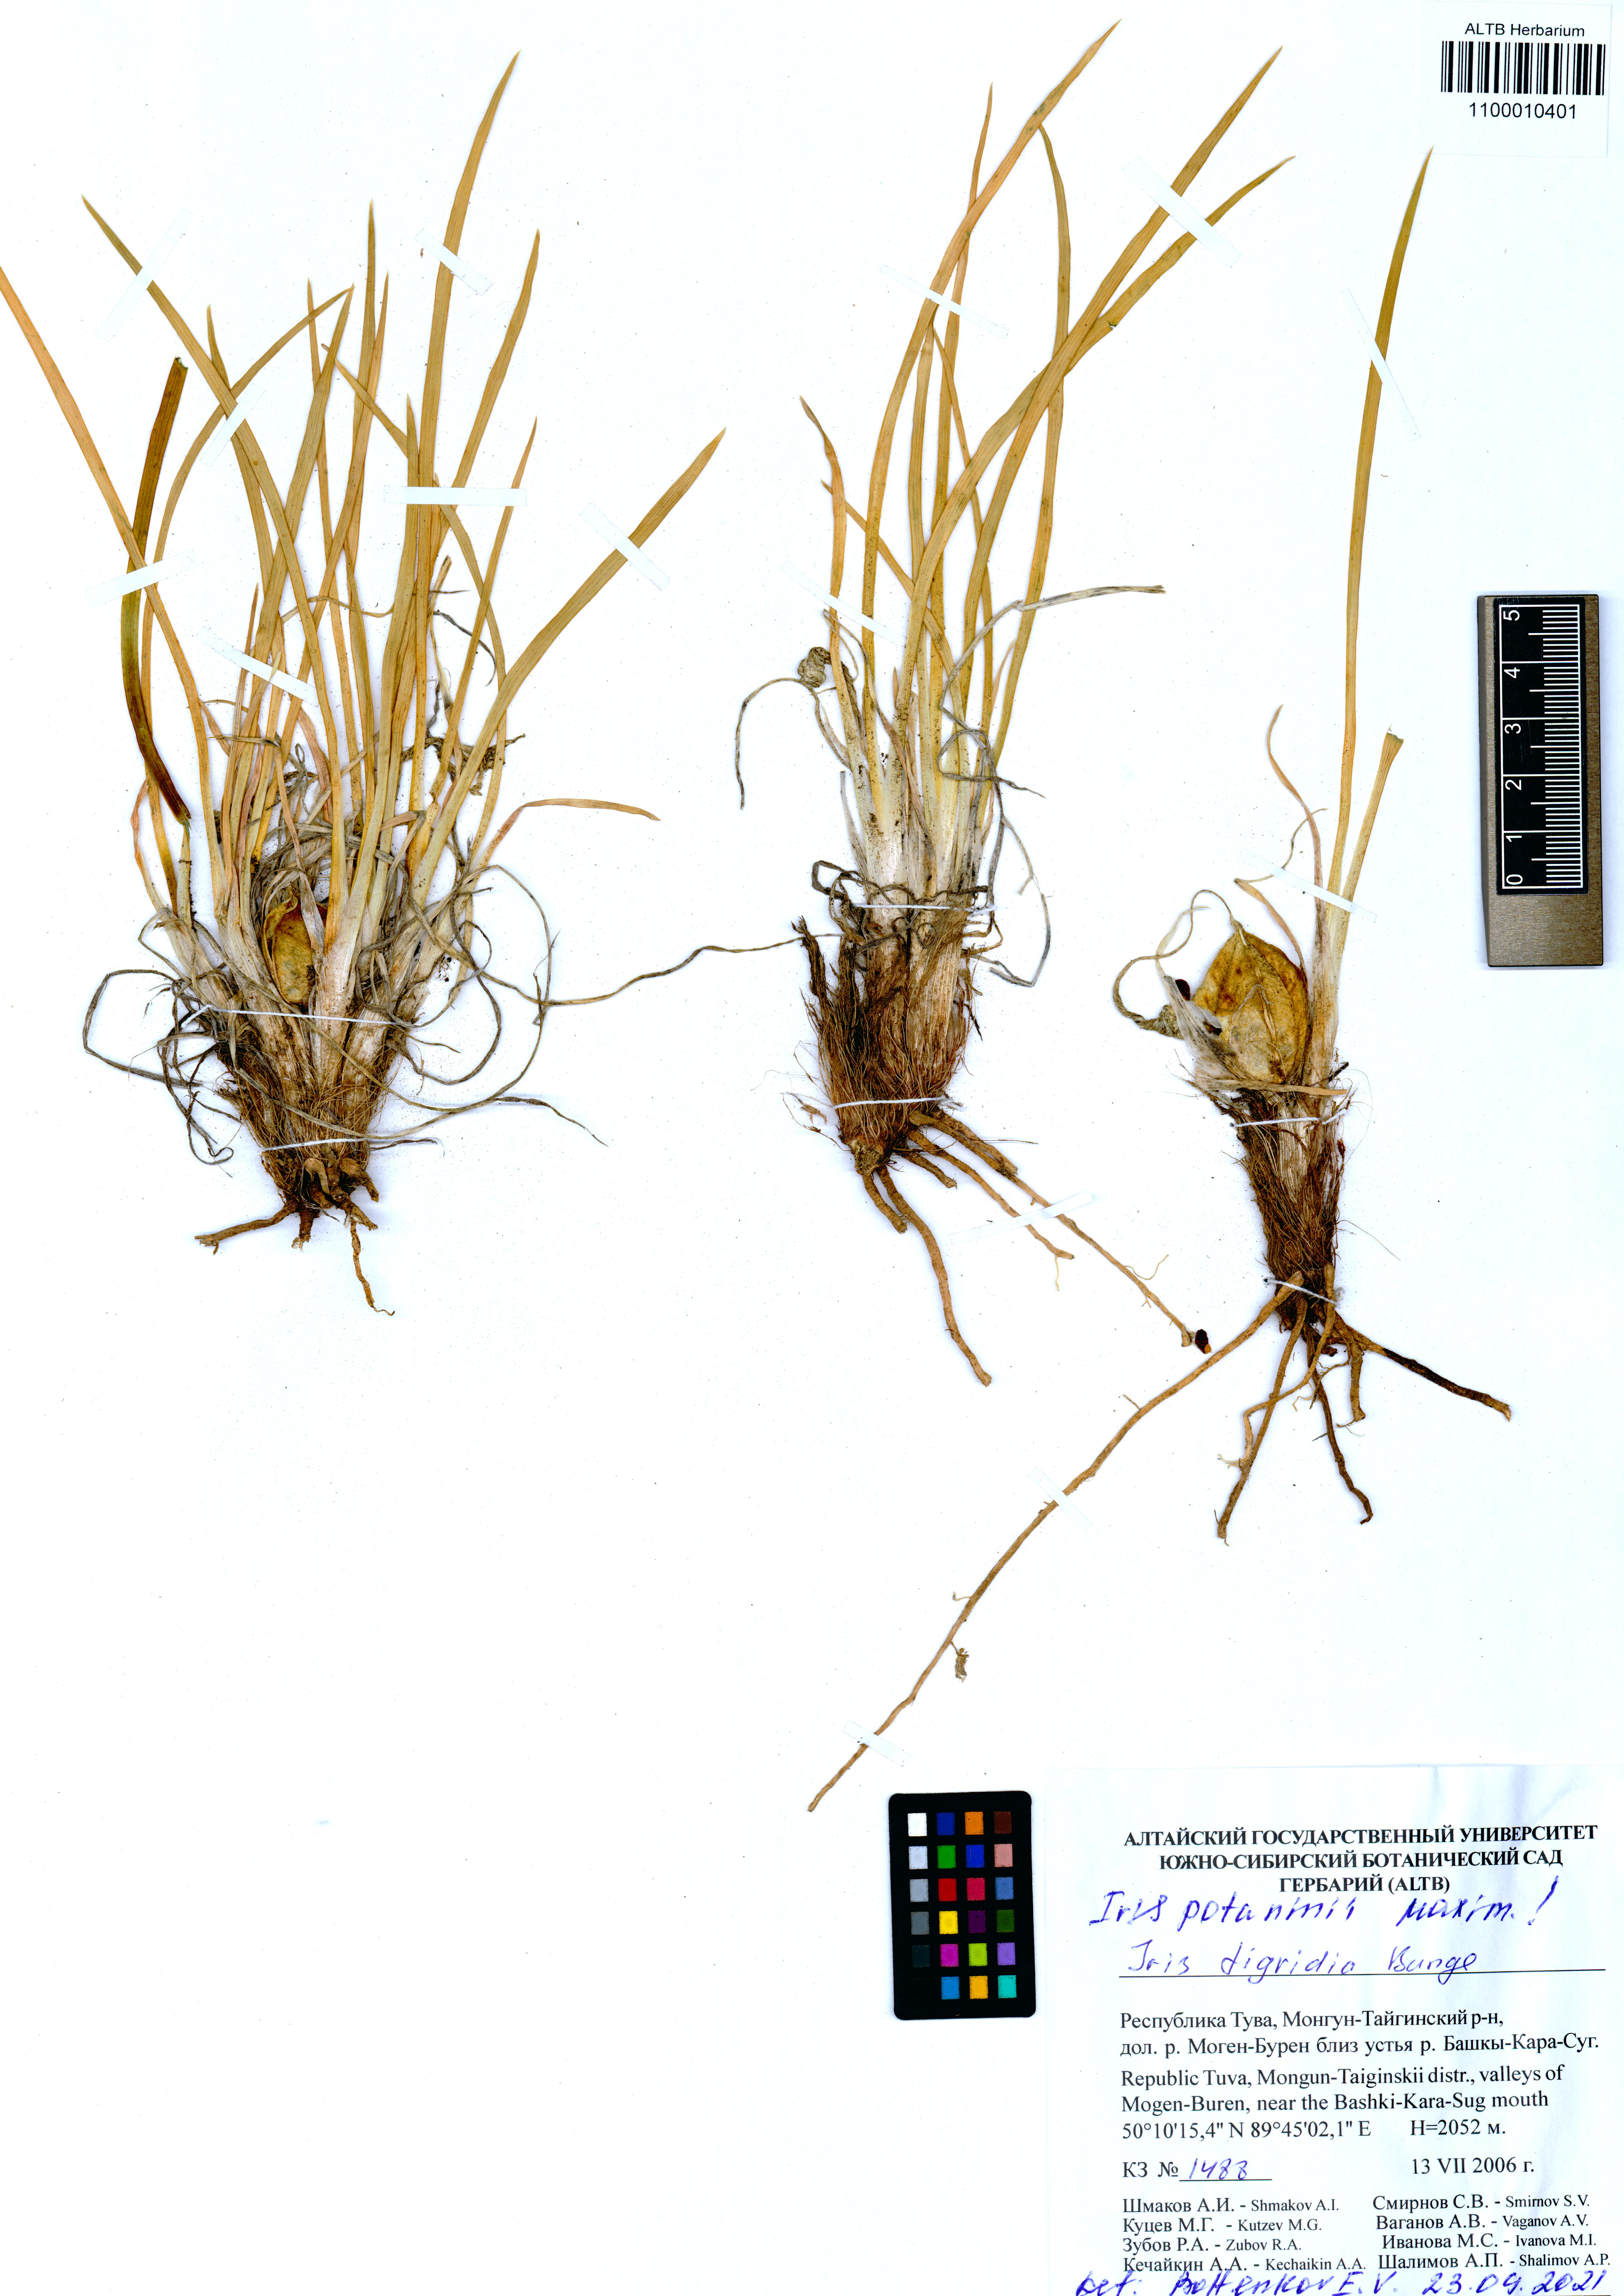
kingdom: Plantae
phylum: Tracheophyta
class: Liliopsida
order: Asparagales
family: Iridaceae
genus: Iris
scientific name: Iris tigridia
